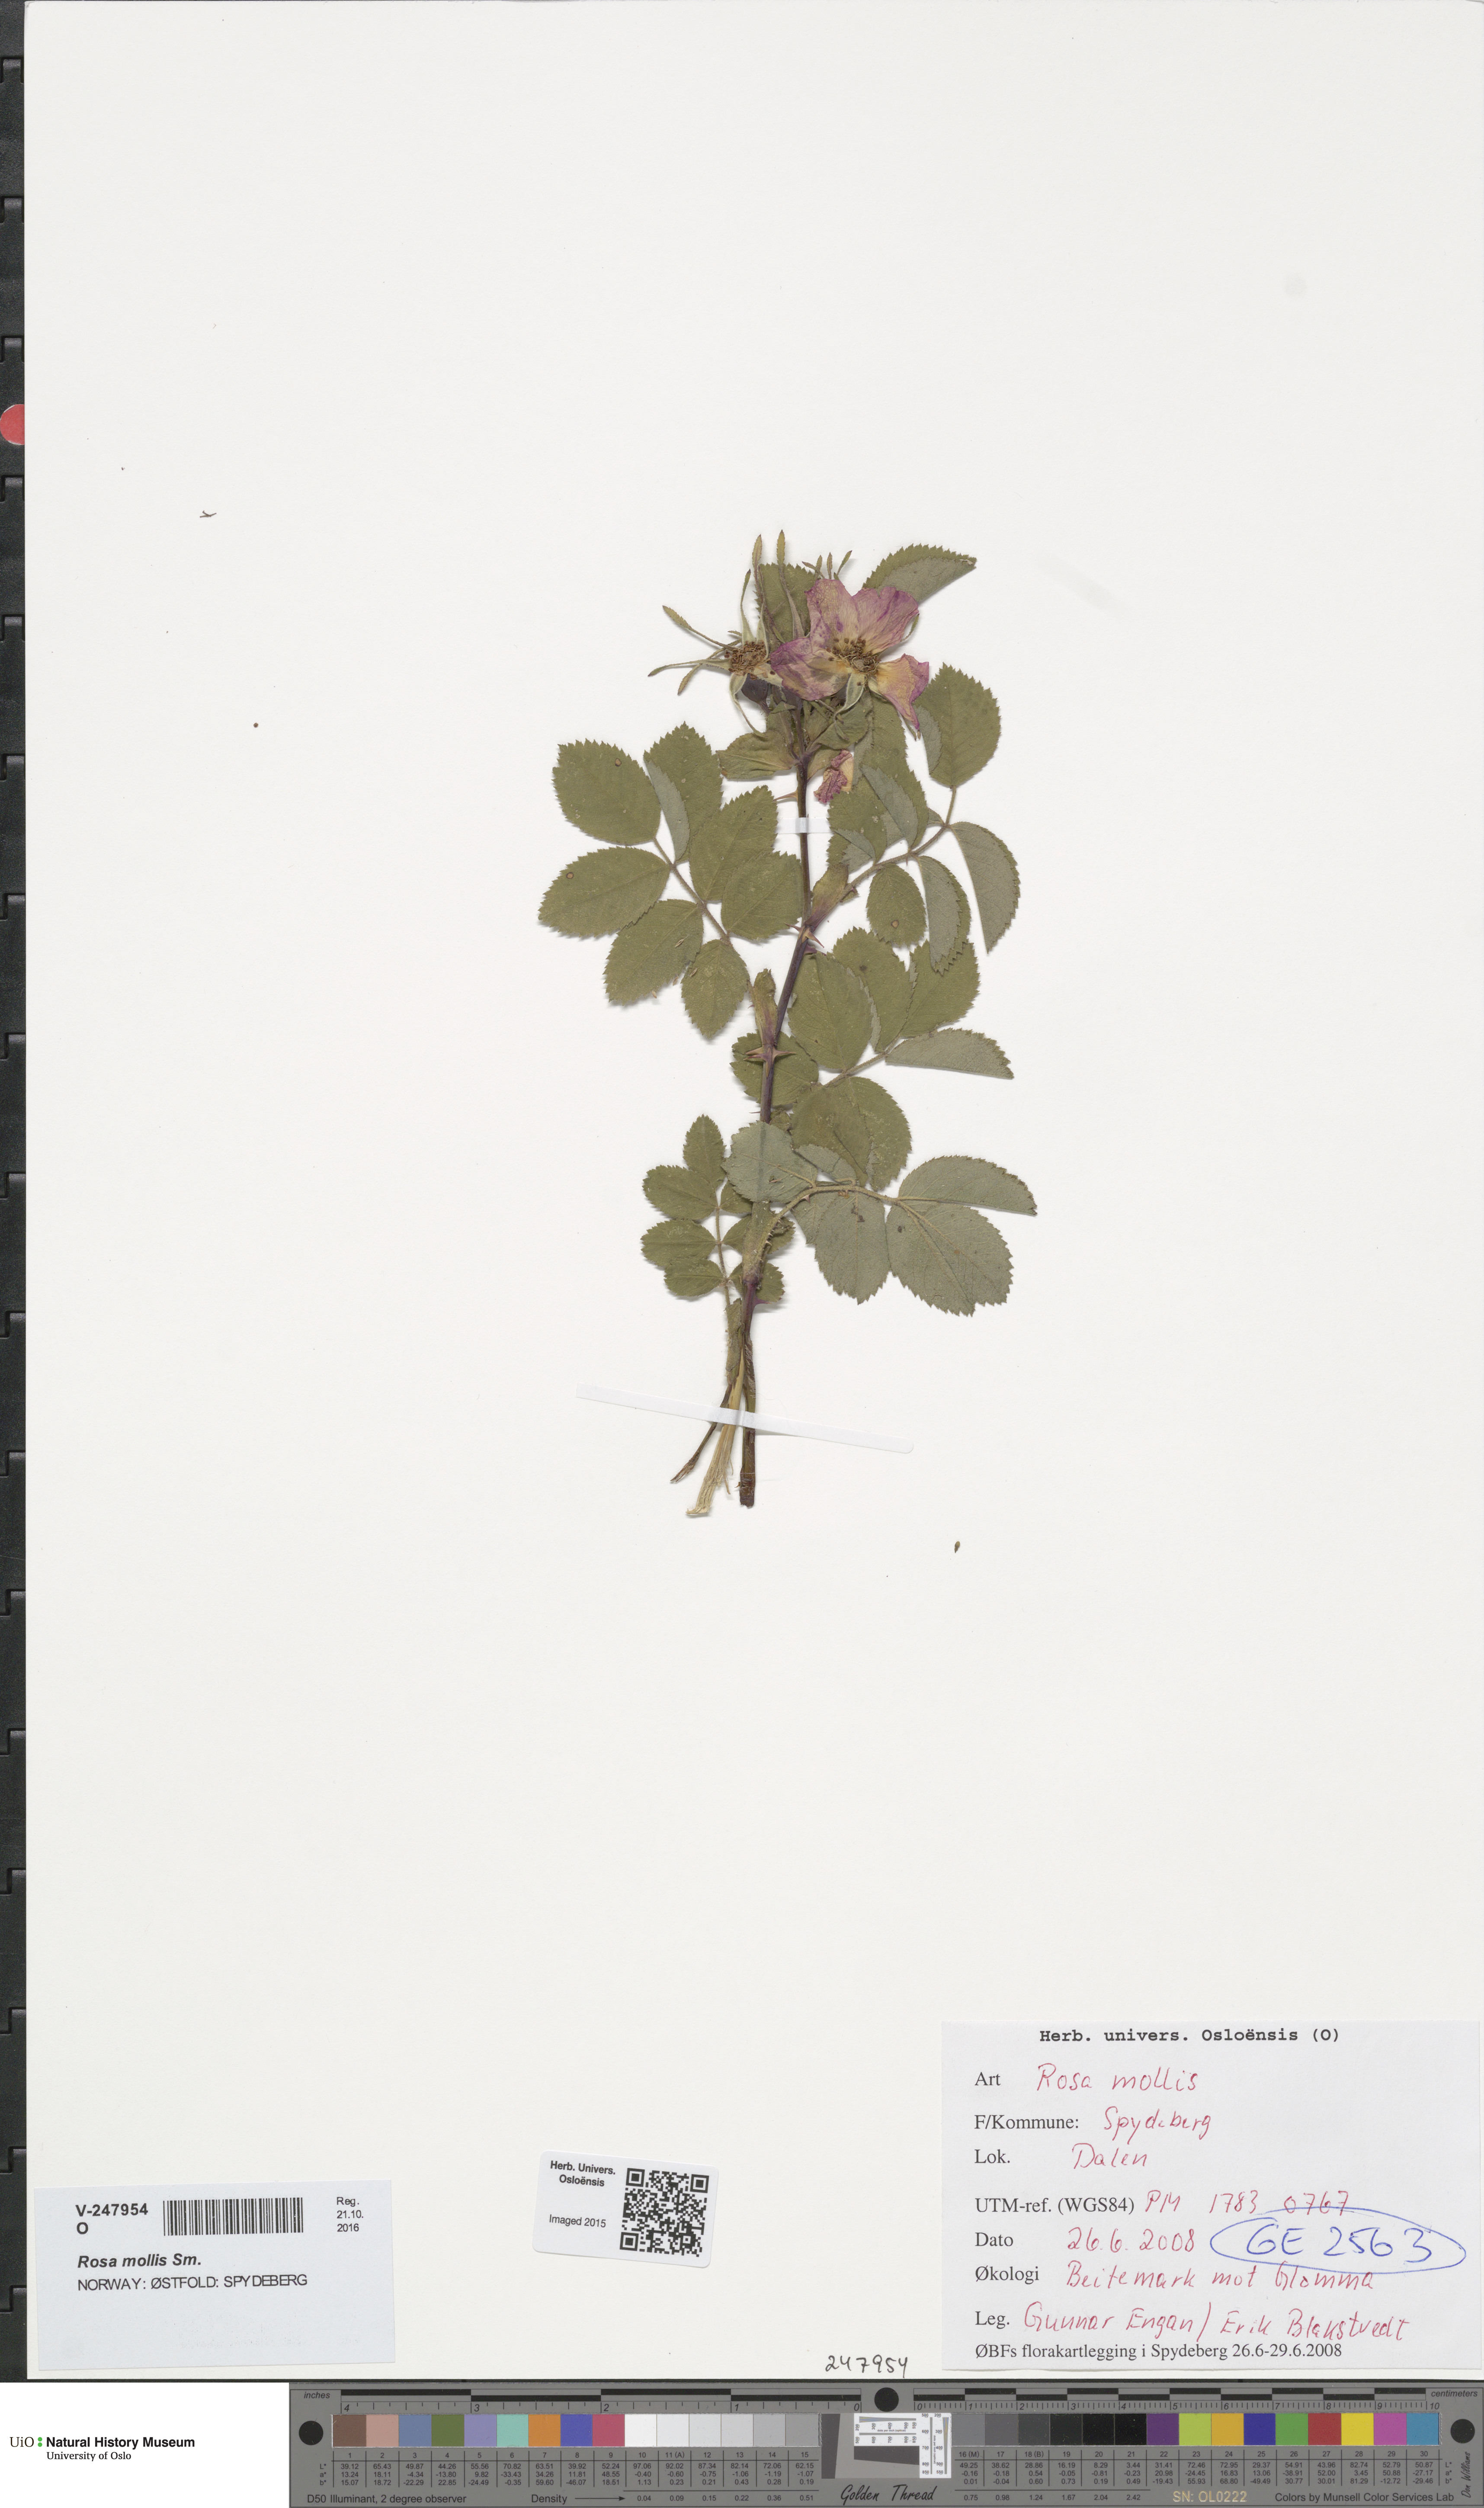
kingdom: Plantae
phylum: Tracheophyta
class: Magnoliopsida
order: Rosales
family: Rosaceae
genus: Rosa
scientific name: Rosa mollis
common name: Rose
